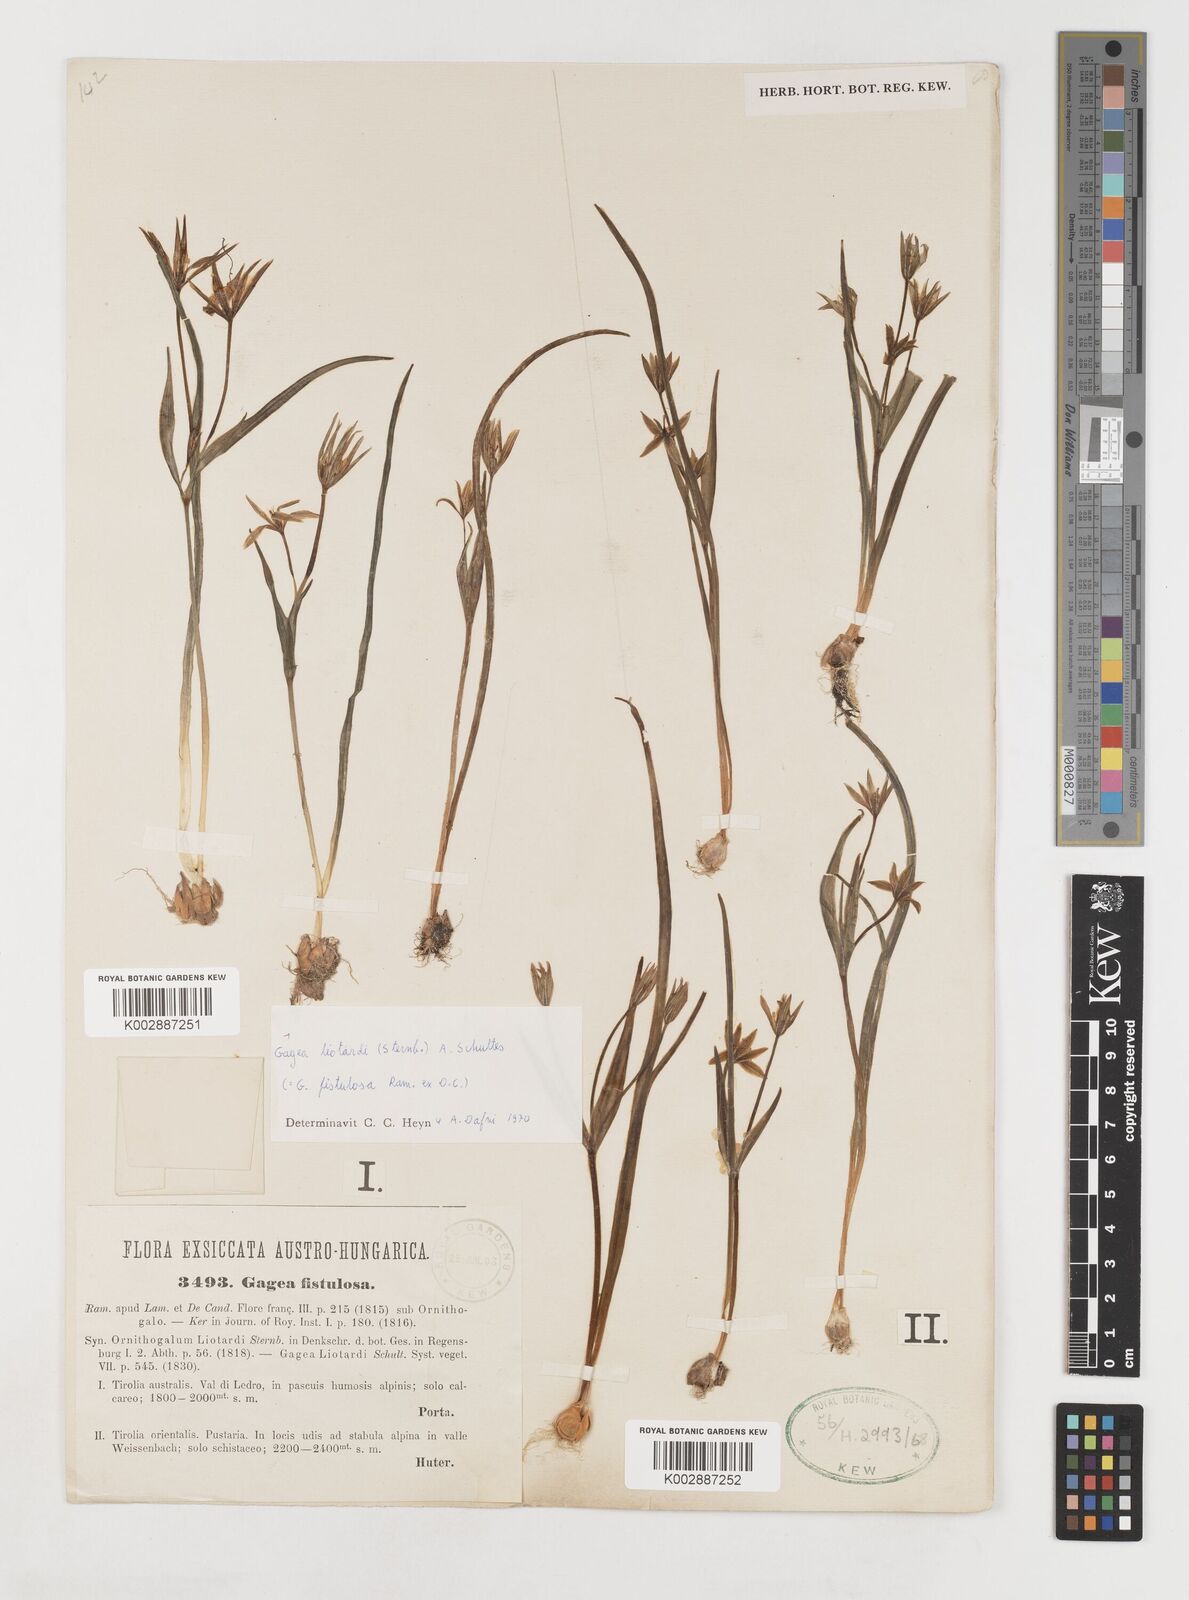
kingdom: Plantae
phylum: Tracheophyta
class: Liliopsida
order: Liliales
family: Liliaceae
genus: Gagea
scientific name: Gagea fragifera
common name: Lily
